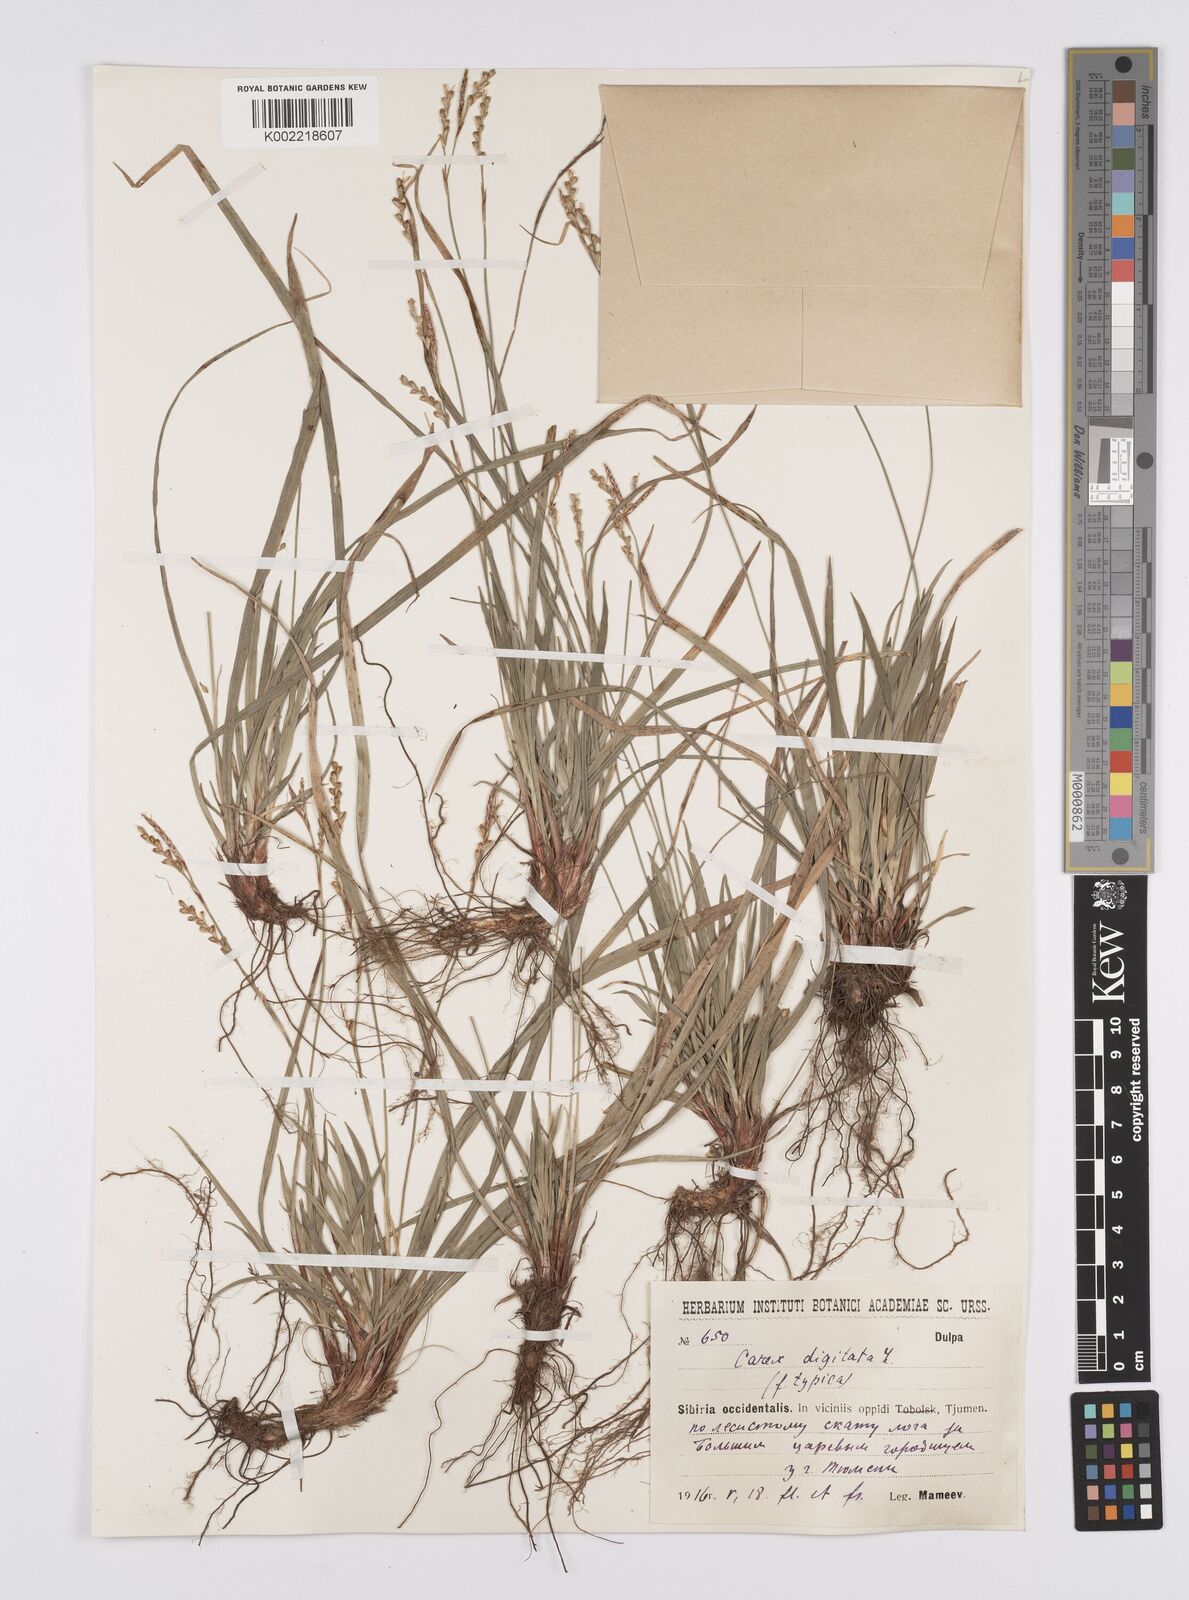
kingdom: Plantae
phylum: Tracheophyta
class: Liliopsida
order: Poales
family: Cyperaceae
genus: Carex
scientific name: Carex digitata
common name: Fingered sedge
